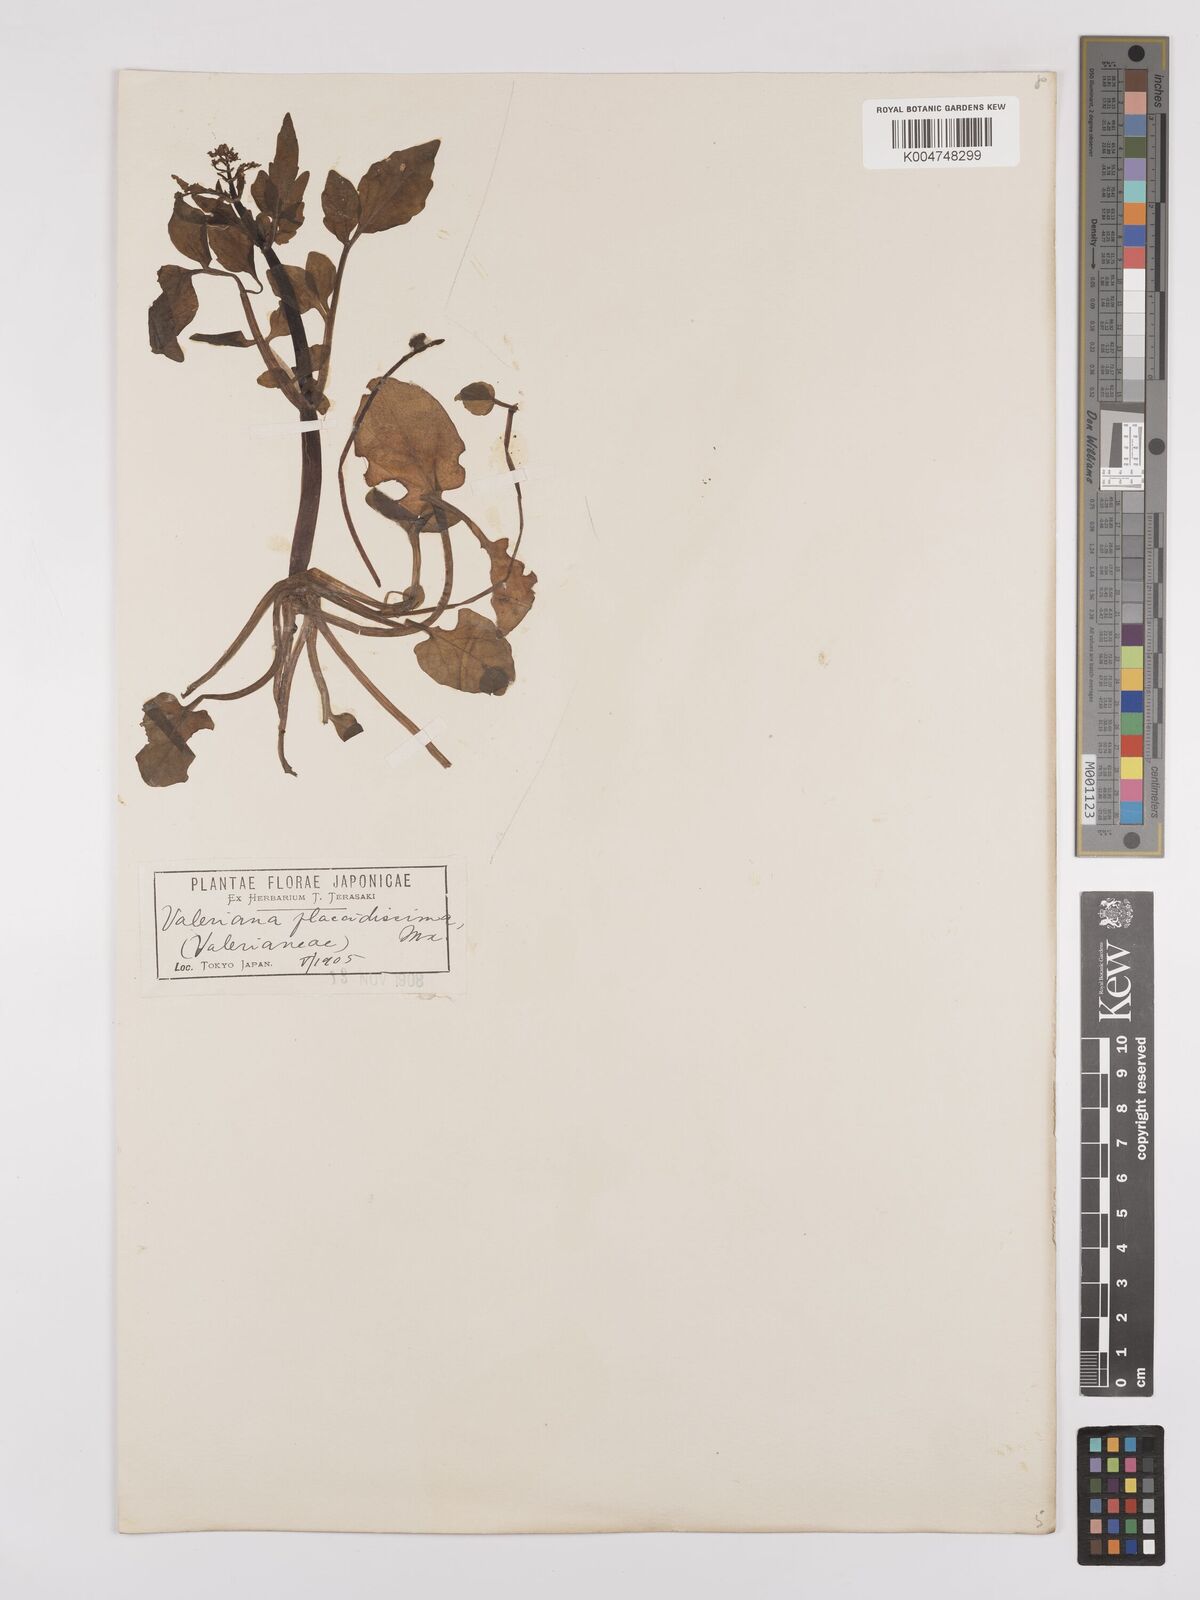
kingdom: Plantae
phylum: Tracheophyta
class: Magnoliopsida
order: Dipsacales
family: Caprifoliaceae
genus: Valeriana
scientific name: Valeriana flaccidissima
